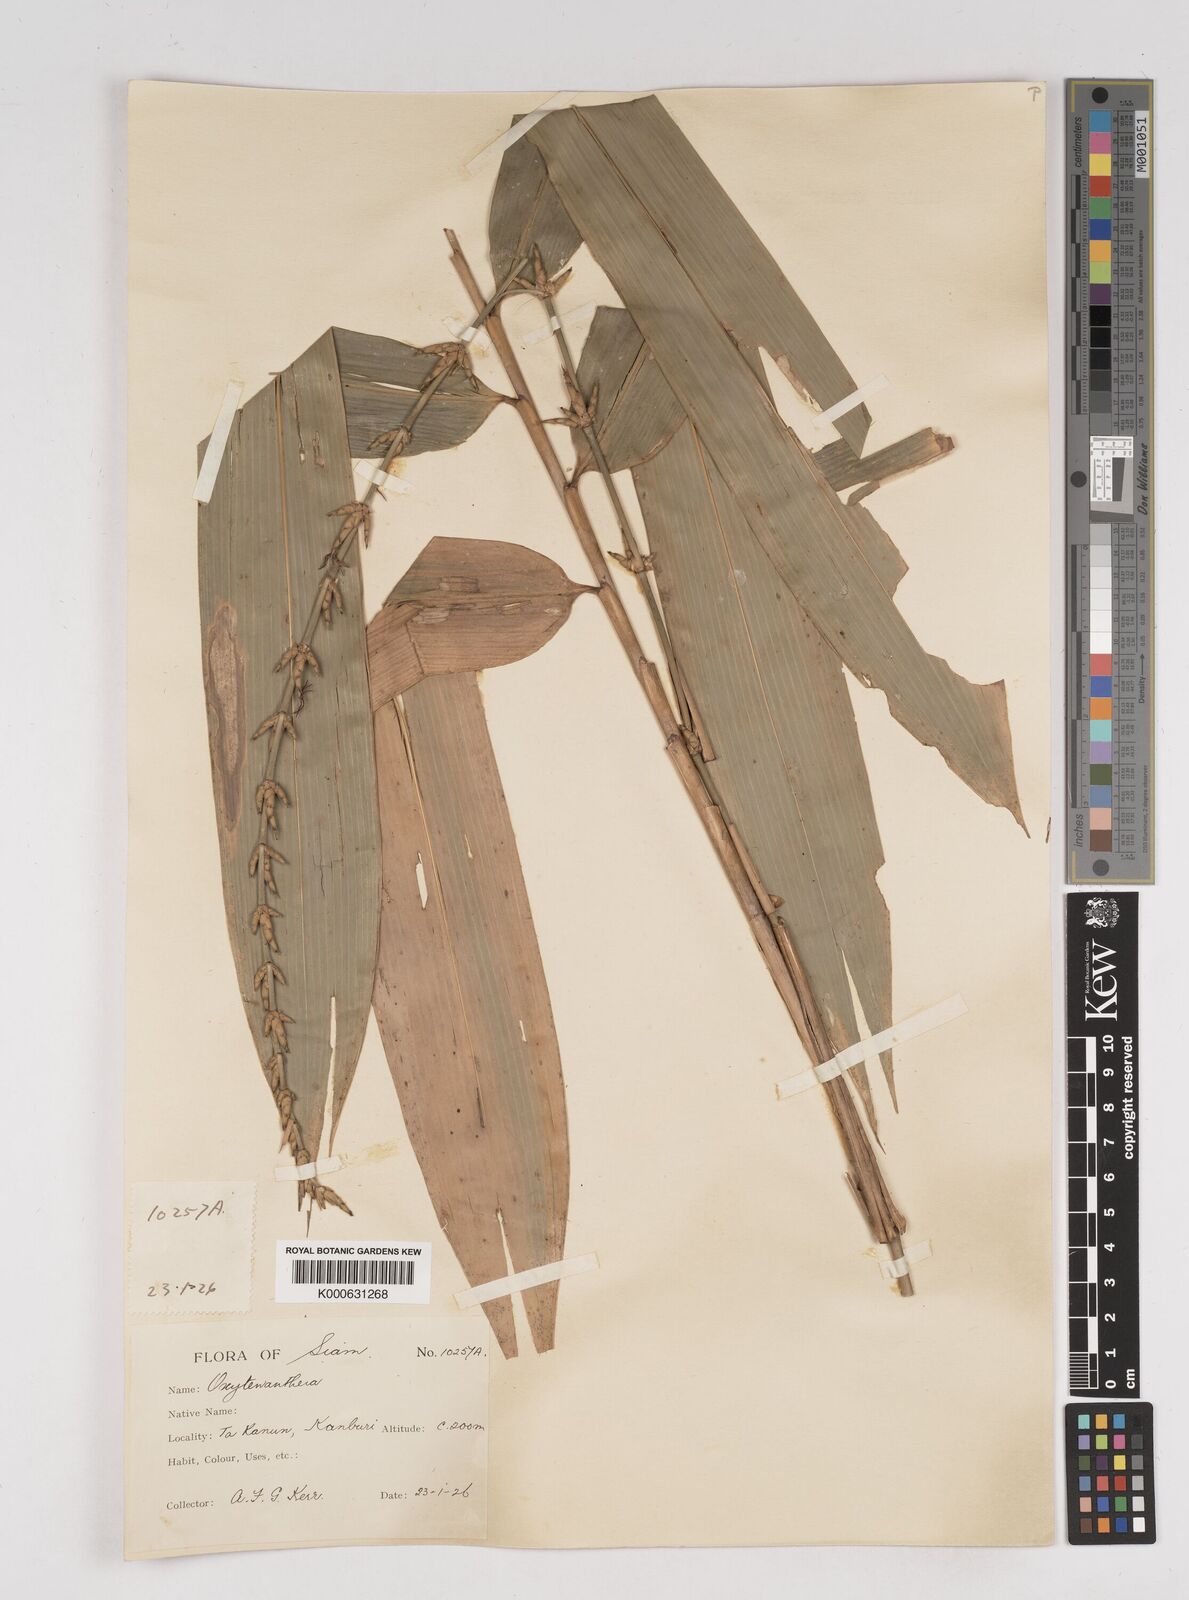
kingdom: Plantae
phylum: Tracheophyta
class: Liliopsida
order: Poales
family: Poaceae
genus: Gigantochloa
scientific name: Gigantochloa
